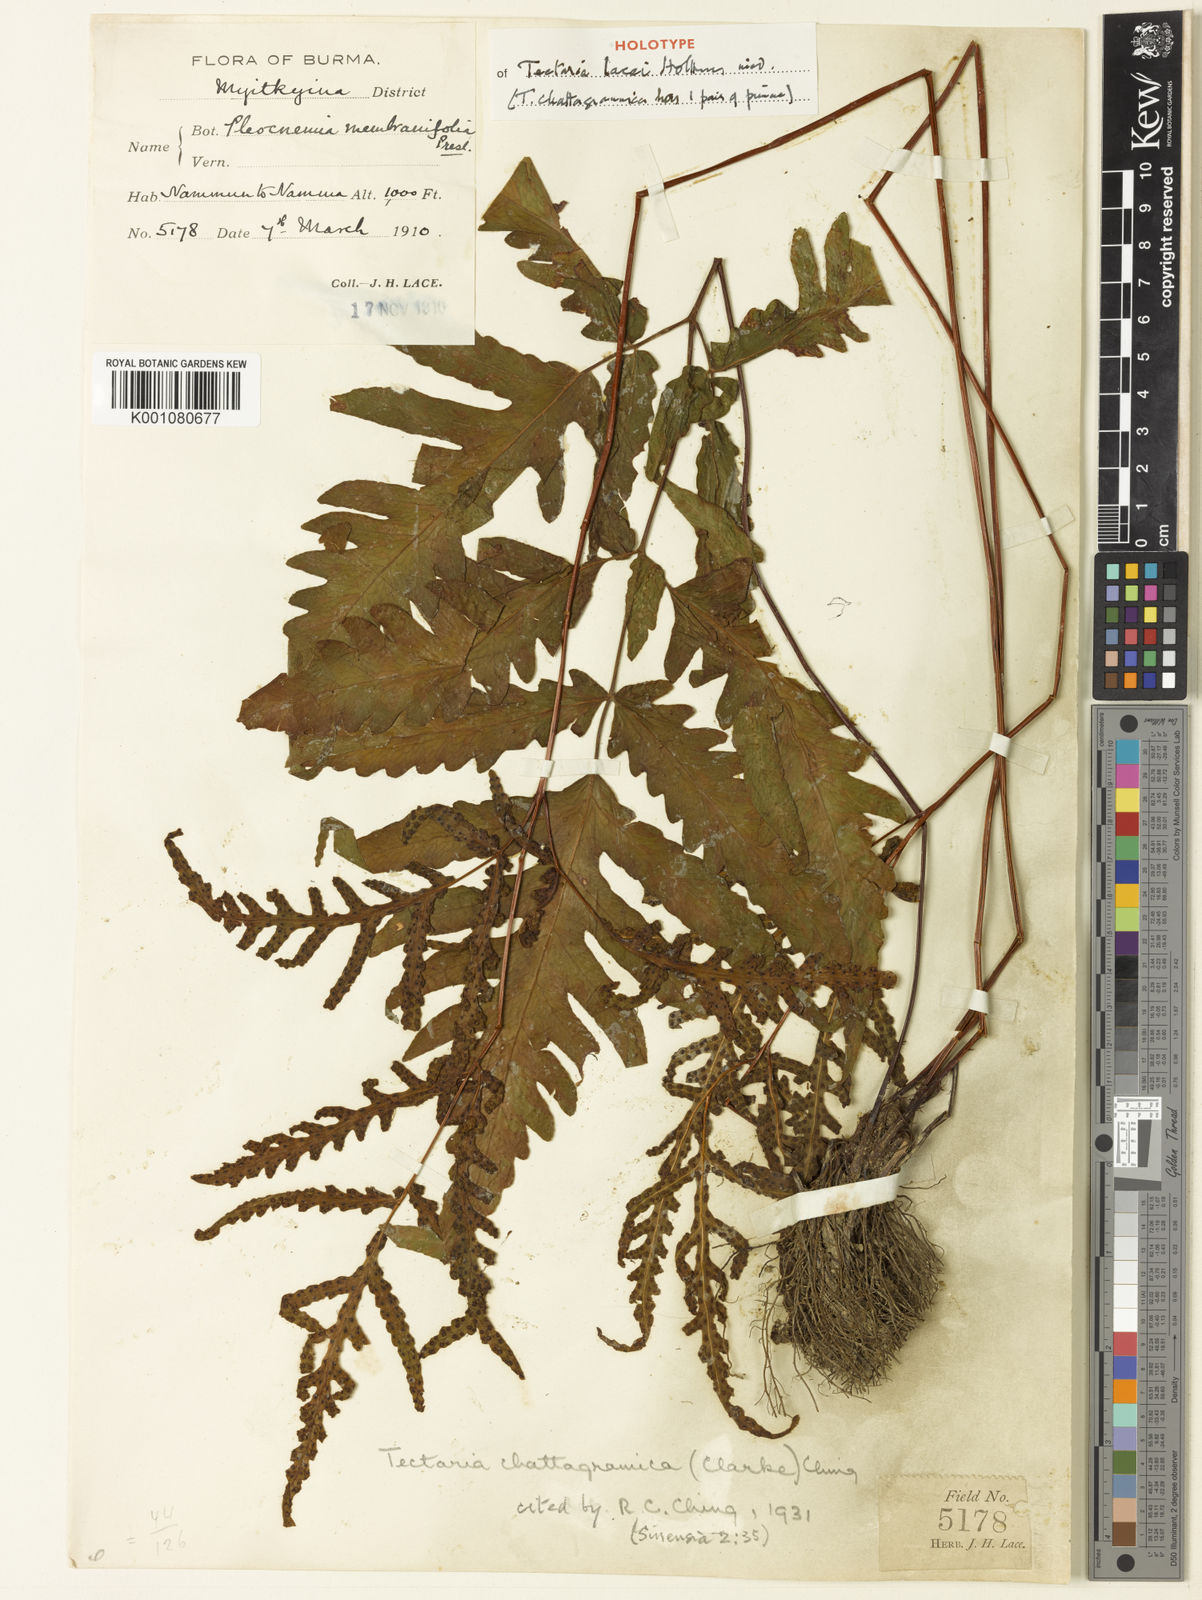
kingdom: Plantae
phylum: Tracheophyta
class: Polypodiopsida
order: Polypodiales
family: Tectariaceae
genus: Tectaria
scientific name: Tectaria lacei
